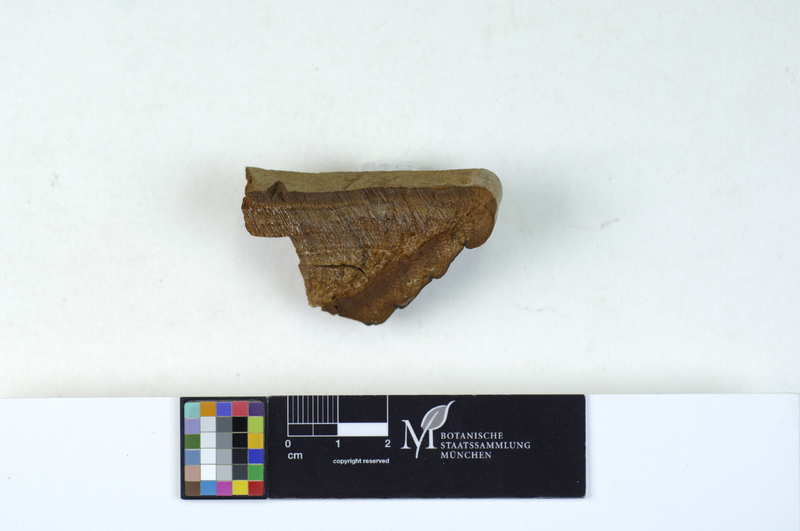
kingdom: Plantae
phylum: Tracheophyta
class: Magnoliopsida
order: Malpighiales
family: Salicaceae
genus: Populus
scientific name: Populus tremula
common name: European aspen
